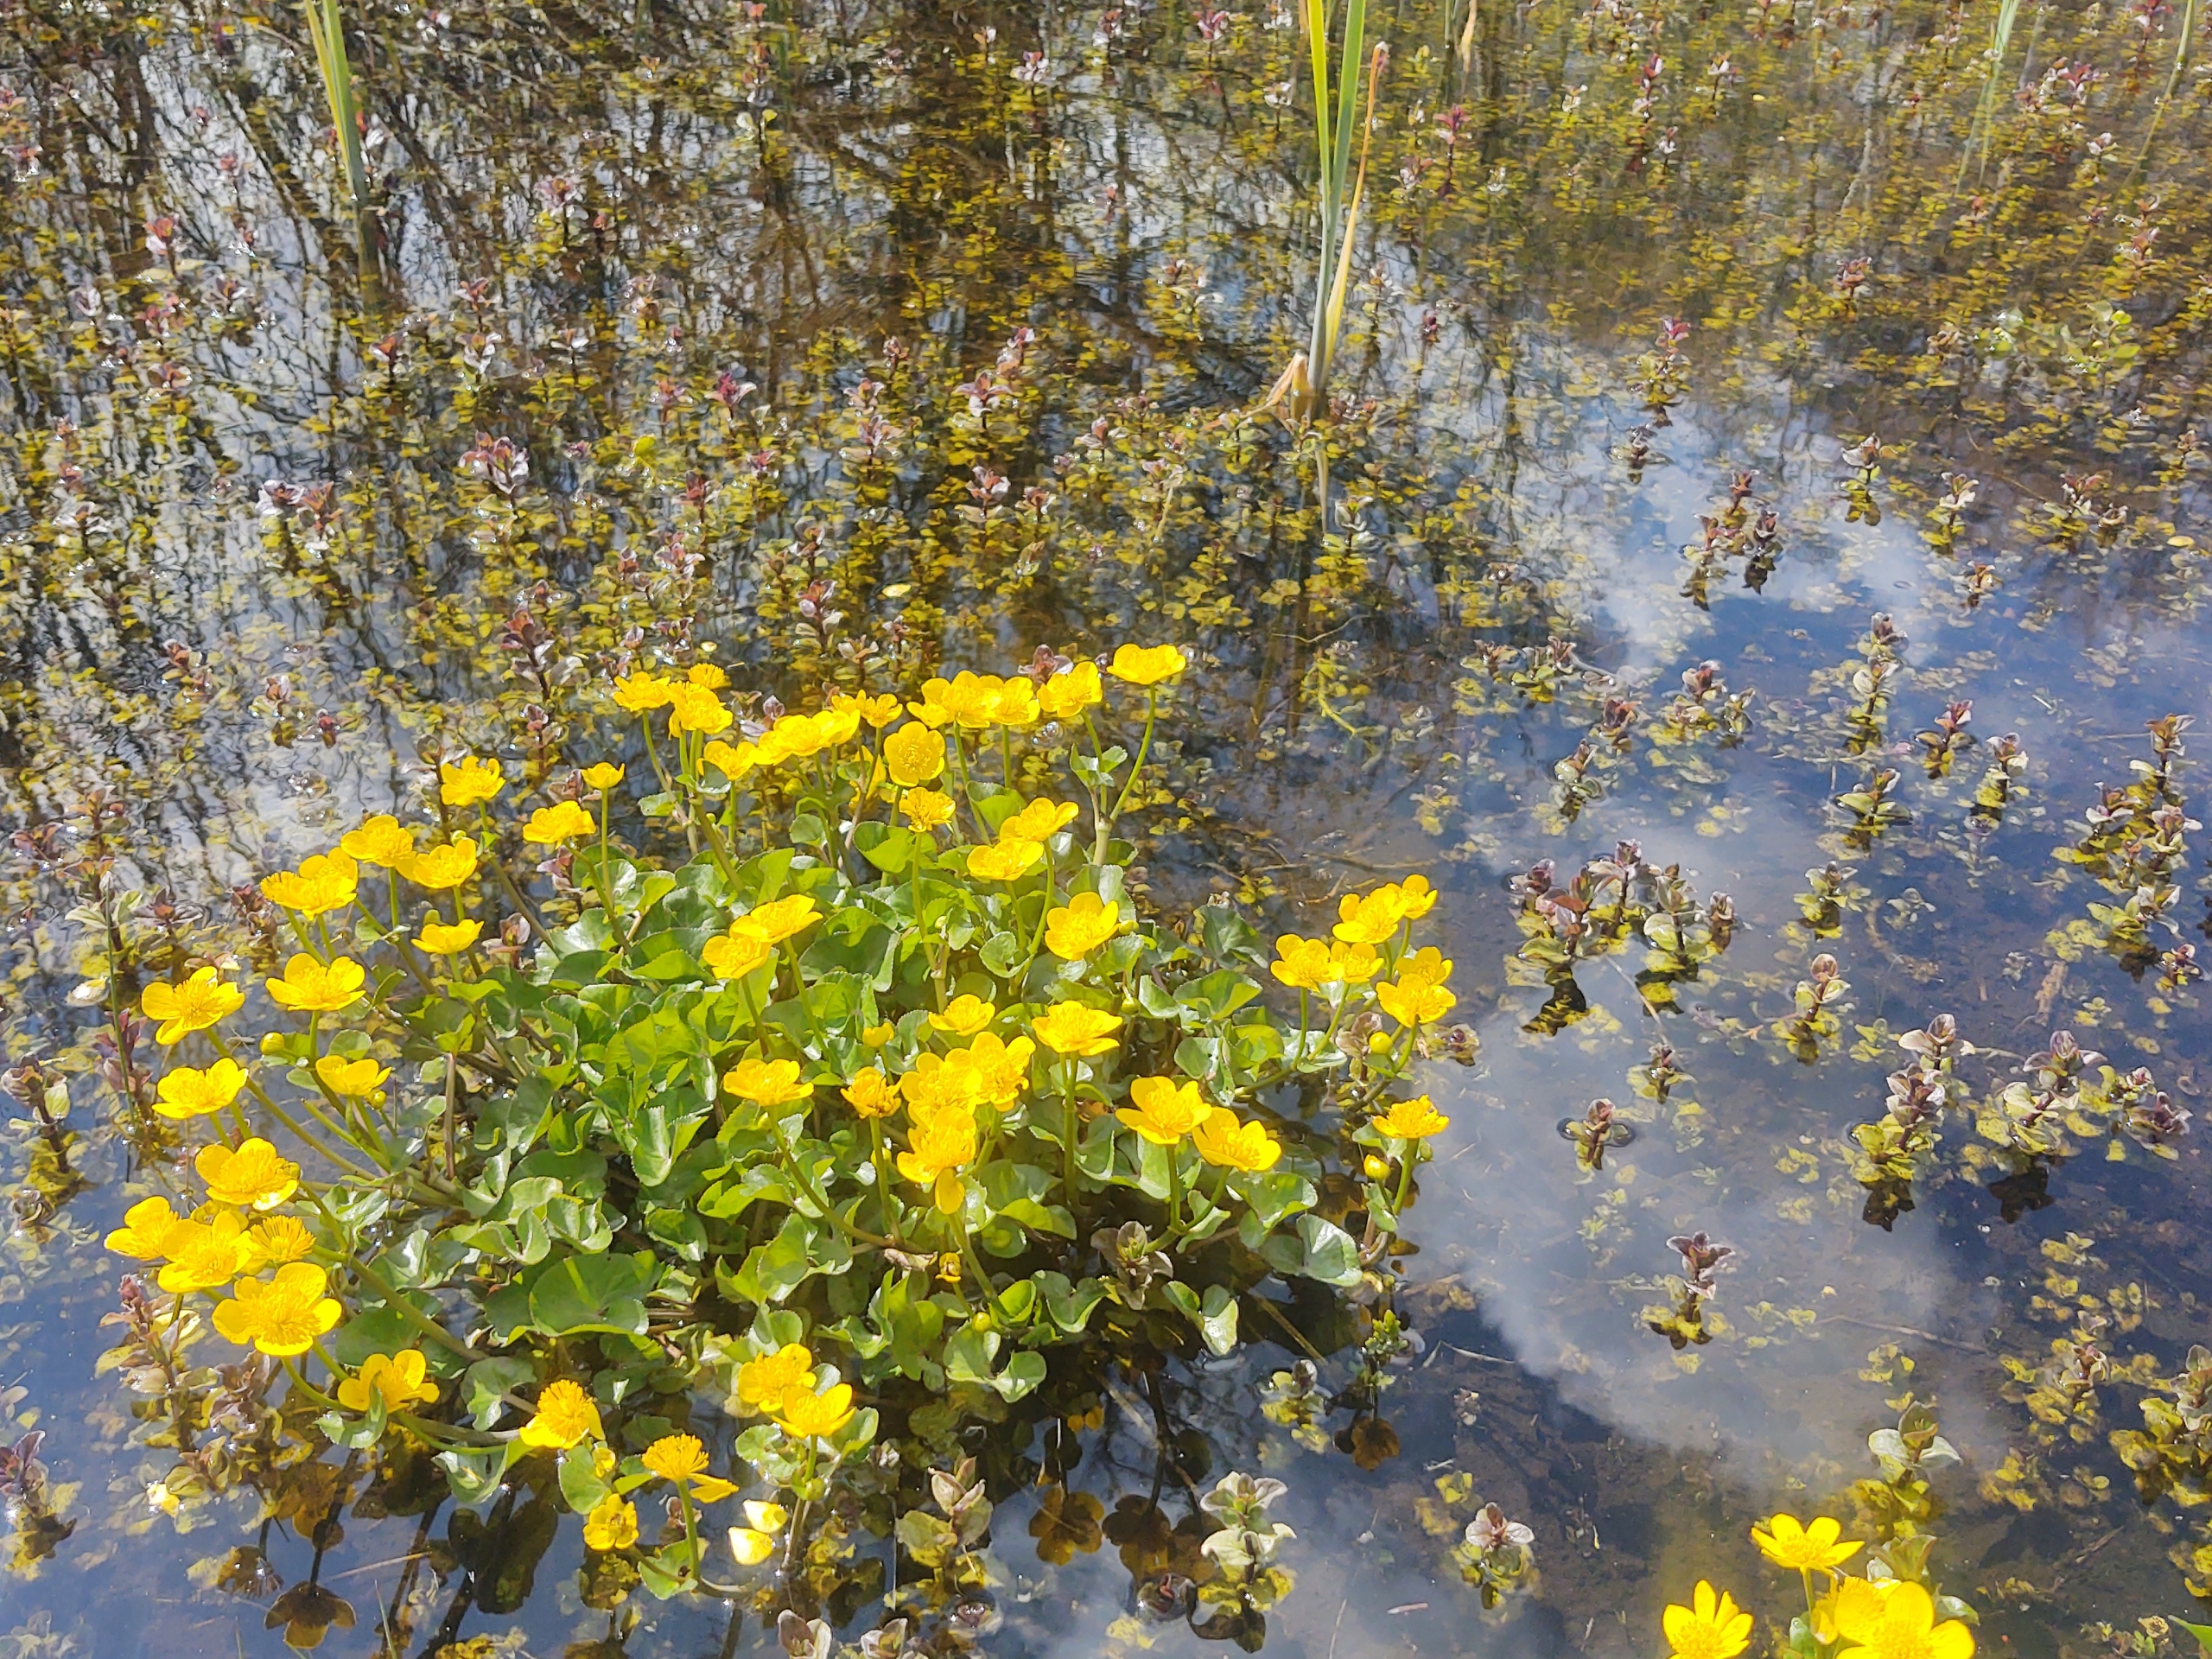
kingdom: Plantae
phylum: Tracheophyta
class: Magnoliopsida
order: Ranunculales
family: Ranunculaceae
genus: Caltha
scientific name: Caltha palustris
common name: Eng-kabbeleje
